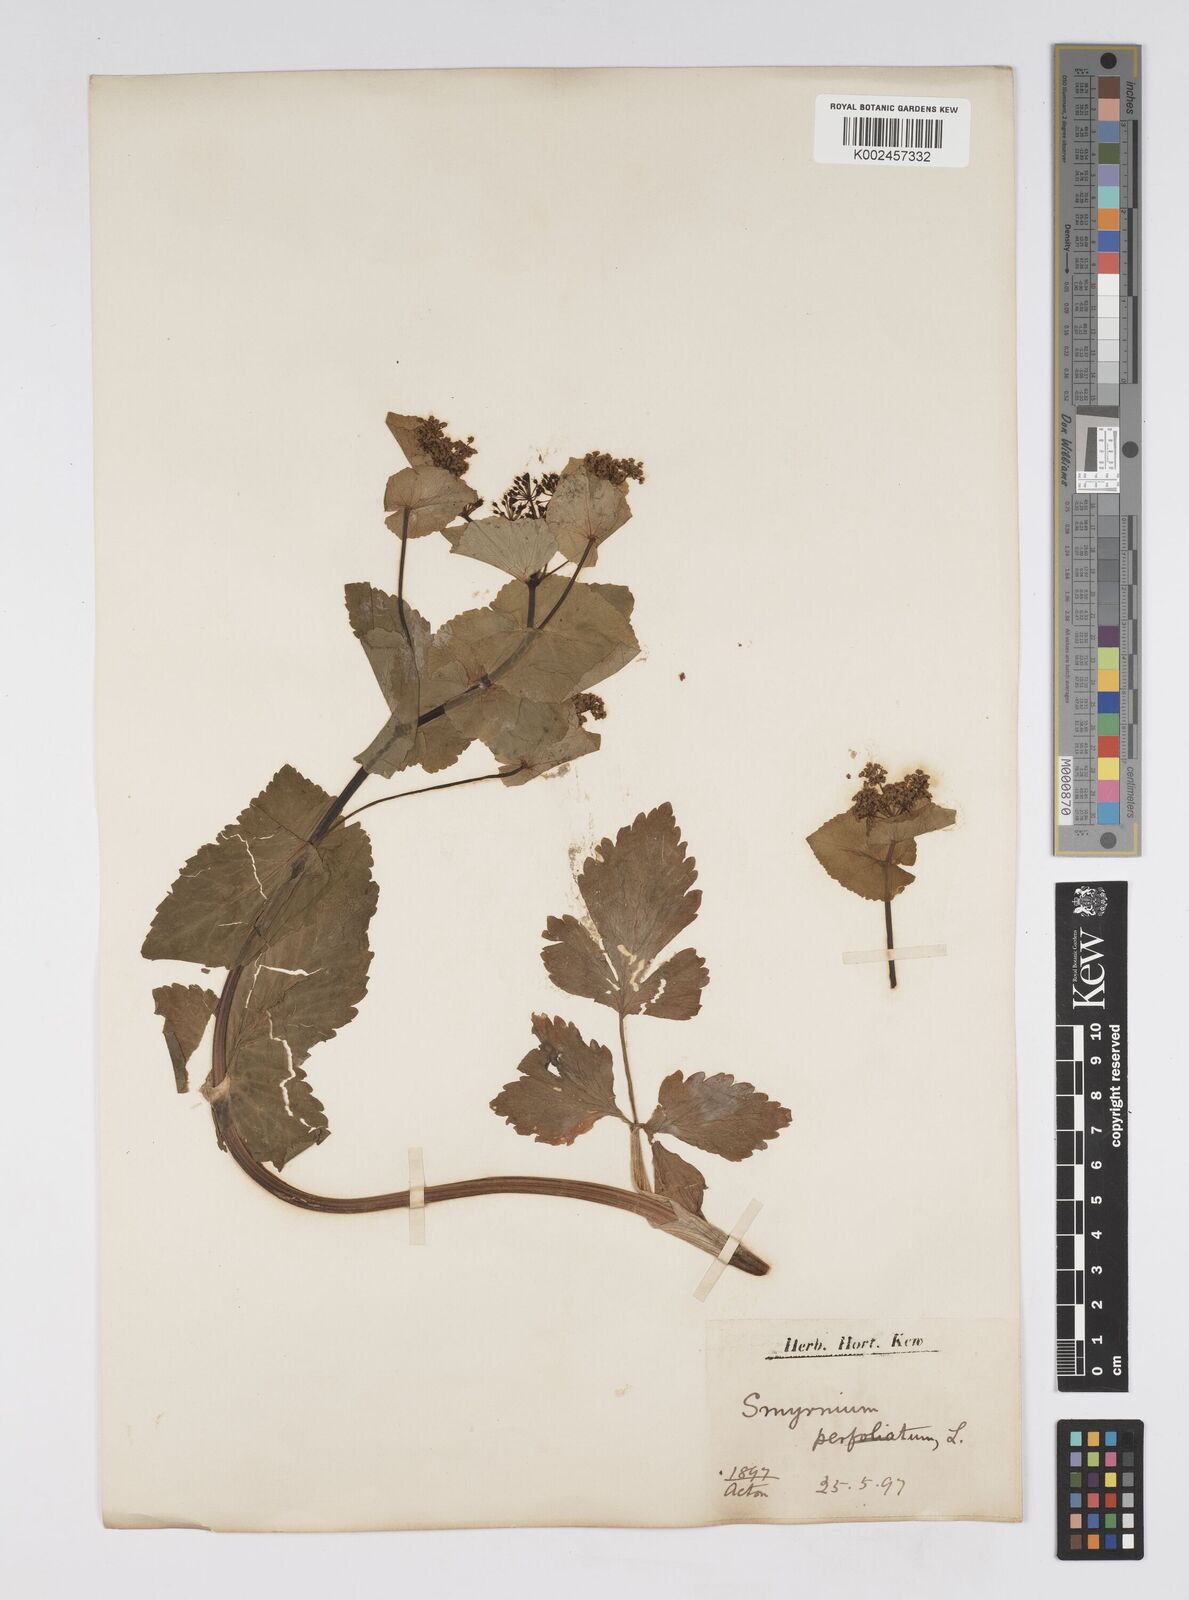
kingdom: Plantae
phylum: Tracheophyta
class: Magnoliopsida
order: Apiales
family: Apiaceae
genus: Smyrnium
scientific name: Smyrnium perfoliatum
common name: Perfoliate alexanders
